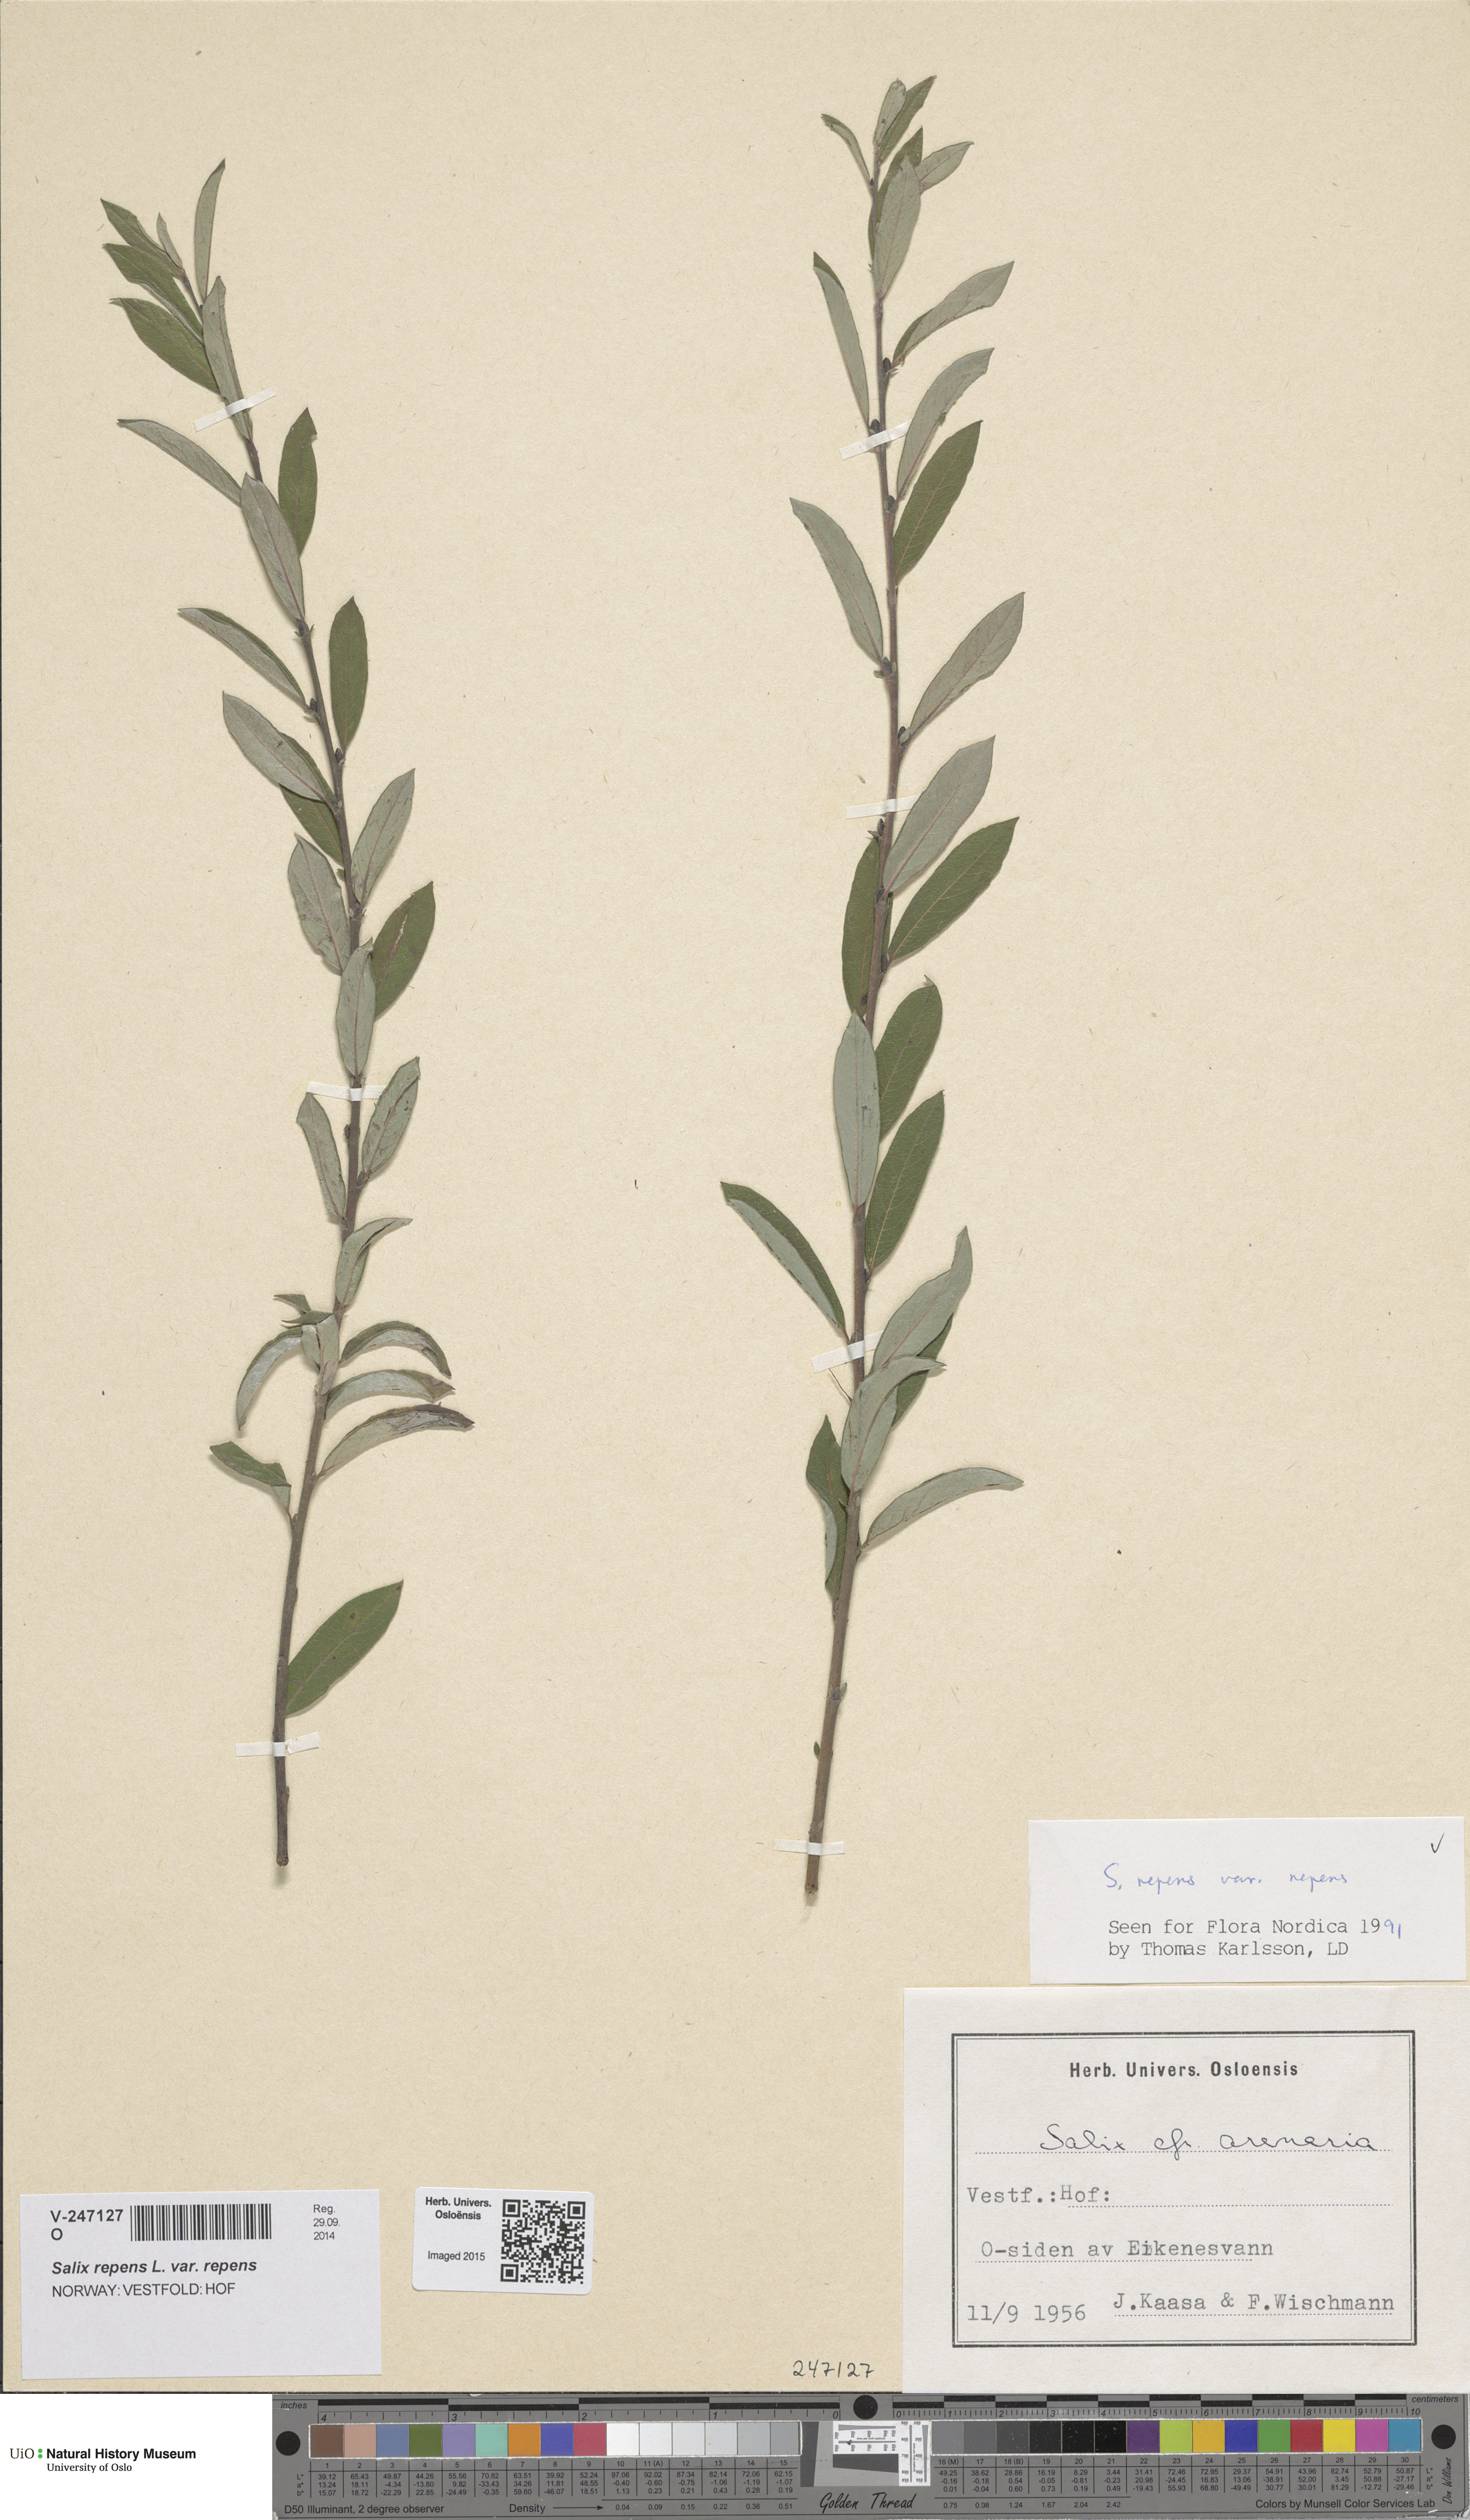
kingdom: Plantae
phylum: Tracheophyta
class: Magnoliopsida
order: Malpighiales
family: Salicaceae
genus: Salix
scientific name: Salix repens
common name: Creeping willow
